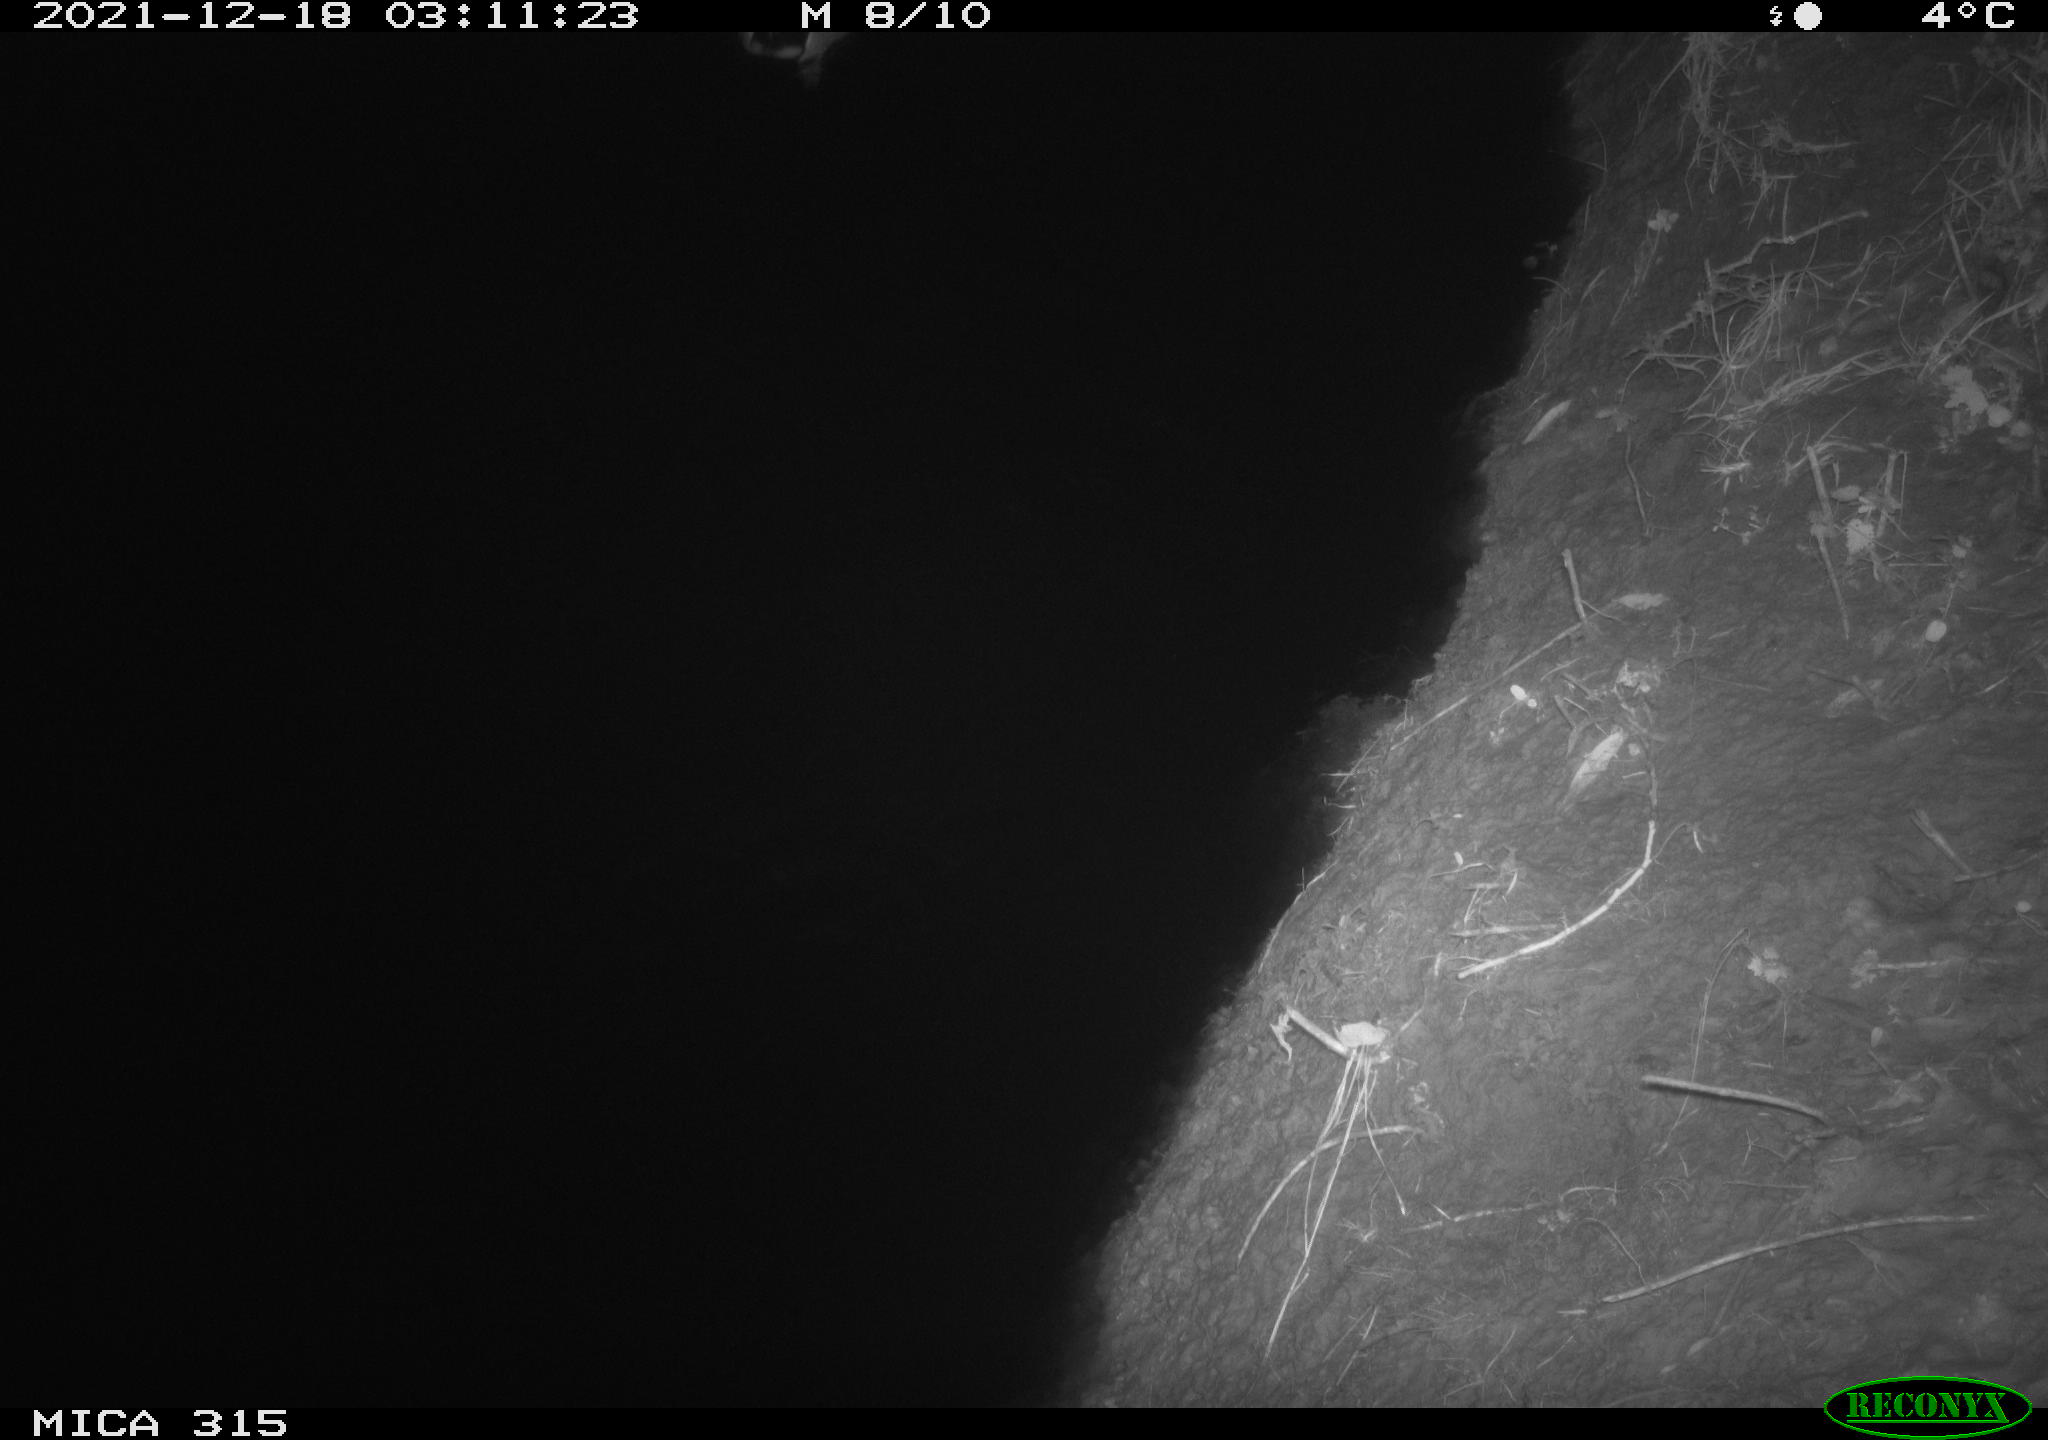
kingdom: Animalia
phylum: Chordata
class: Aves
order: Anseriformes
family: Anatidae
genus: Anas
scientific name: Anas
